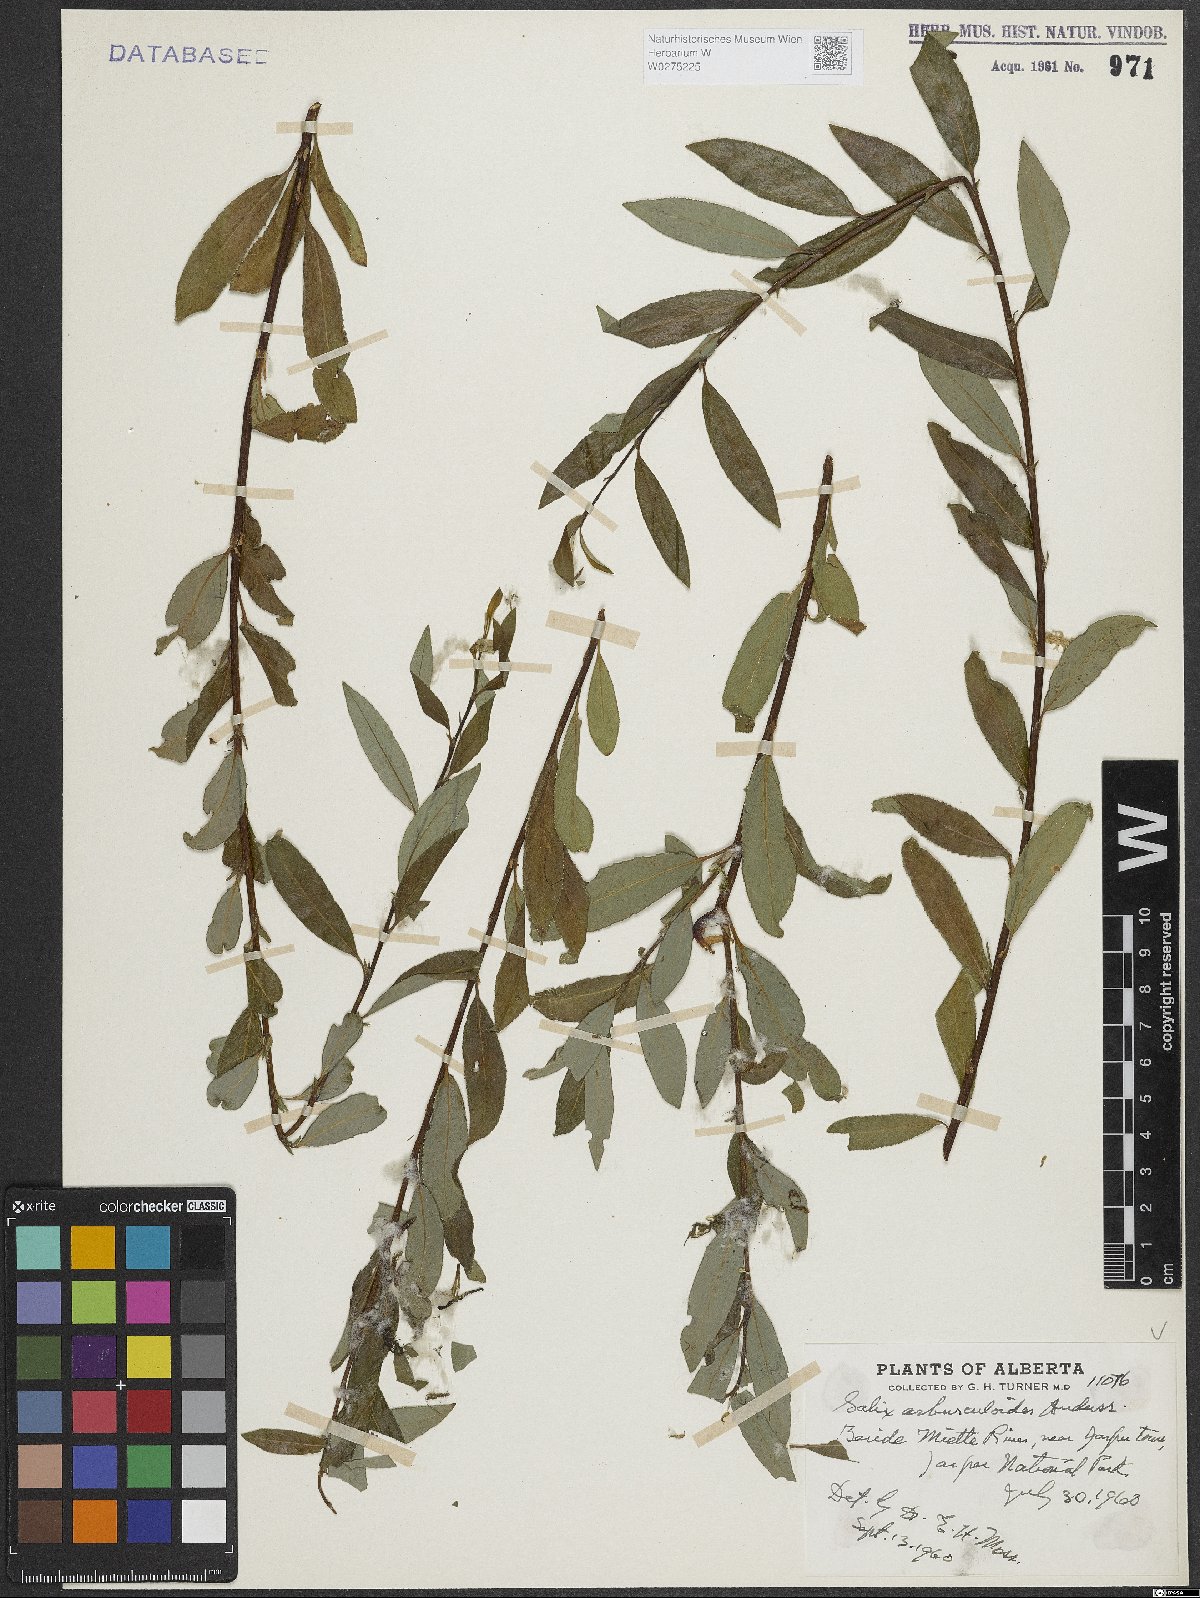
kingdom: Plantae
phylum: Tracheophyta
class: Magnoliopsida
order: Malpighiales
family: Salicaceae
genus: Salix
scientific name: Salix arbusculoides
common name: Little-tree willow
